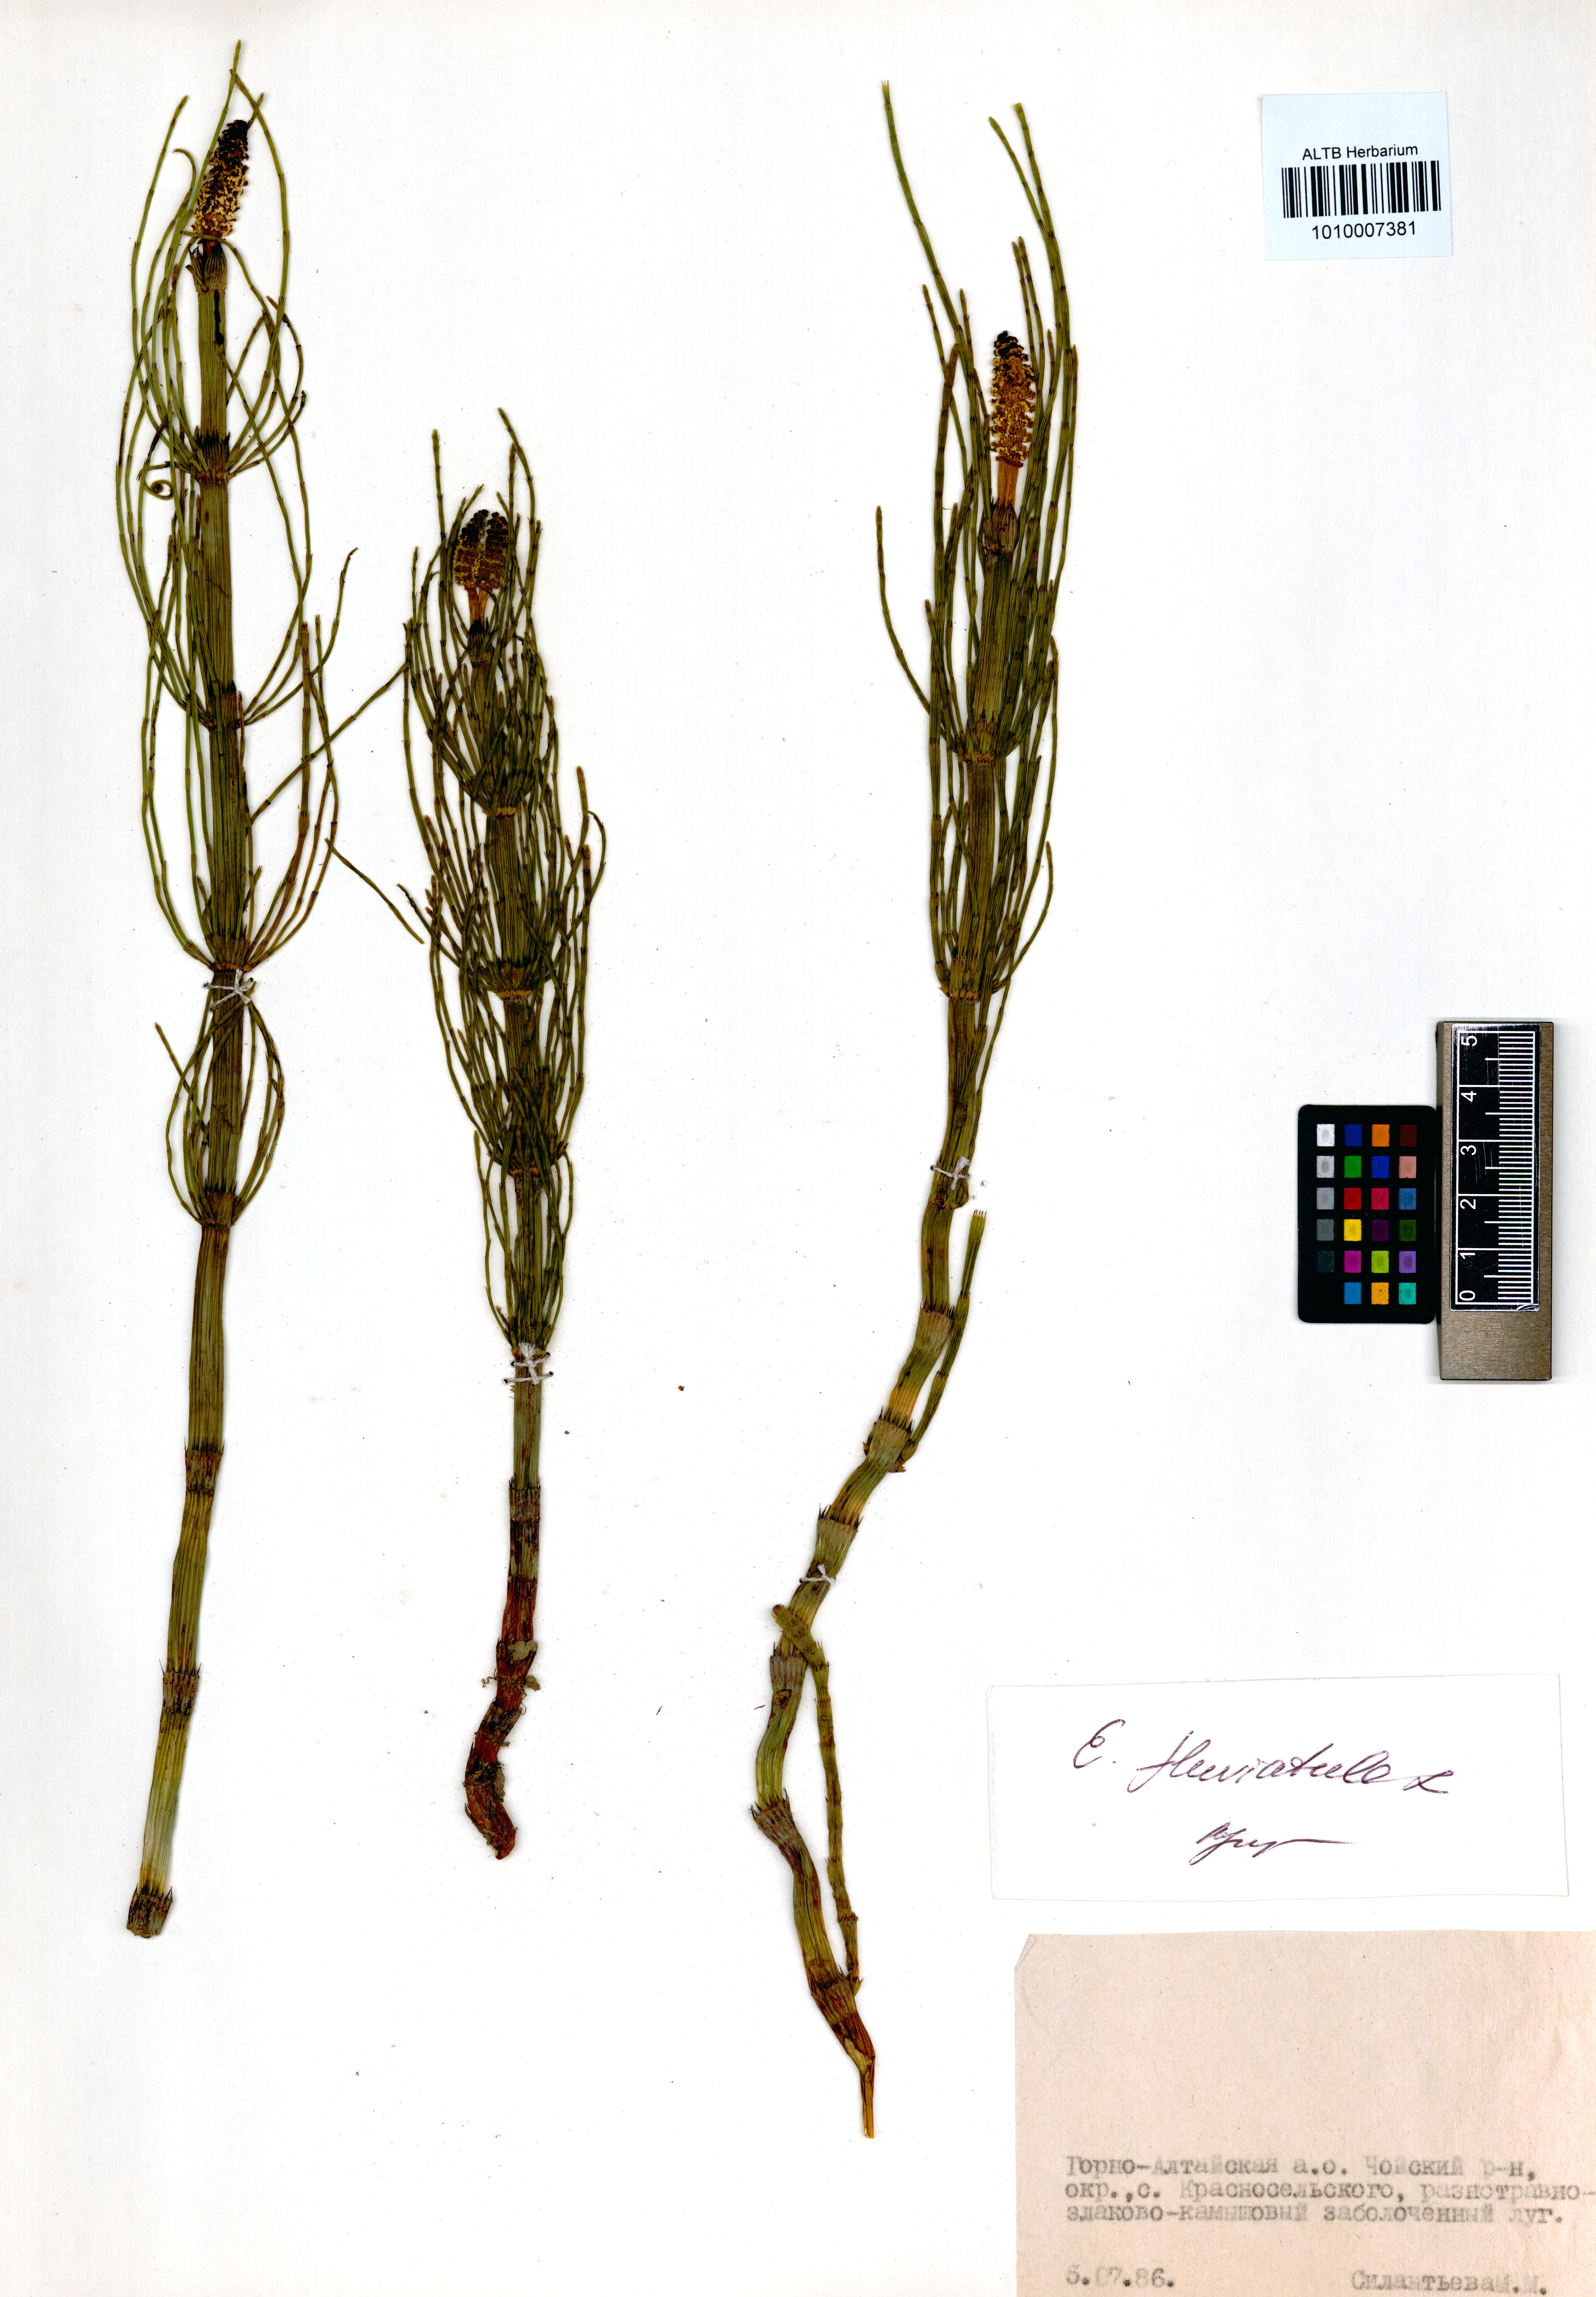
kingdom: Plantae
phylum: Tracheophyta
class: Polypodiopsida
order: Equisetales
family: Equisetaceae
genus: Equisetum
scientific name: Equisetum fluviatile
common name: Water horsetail
